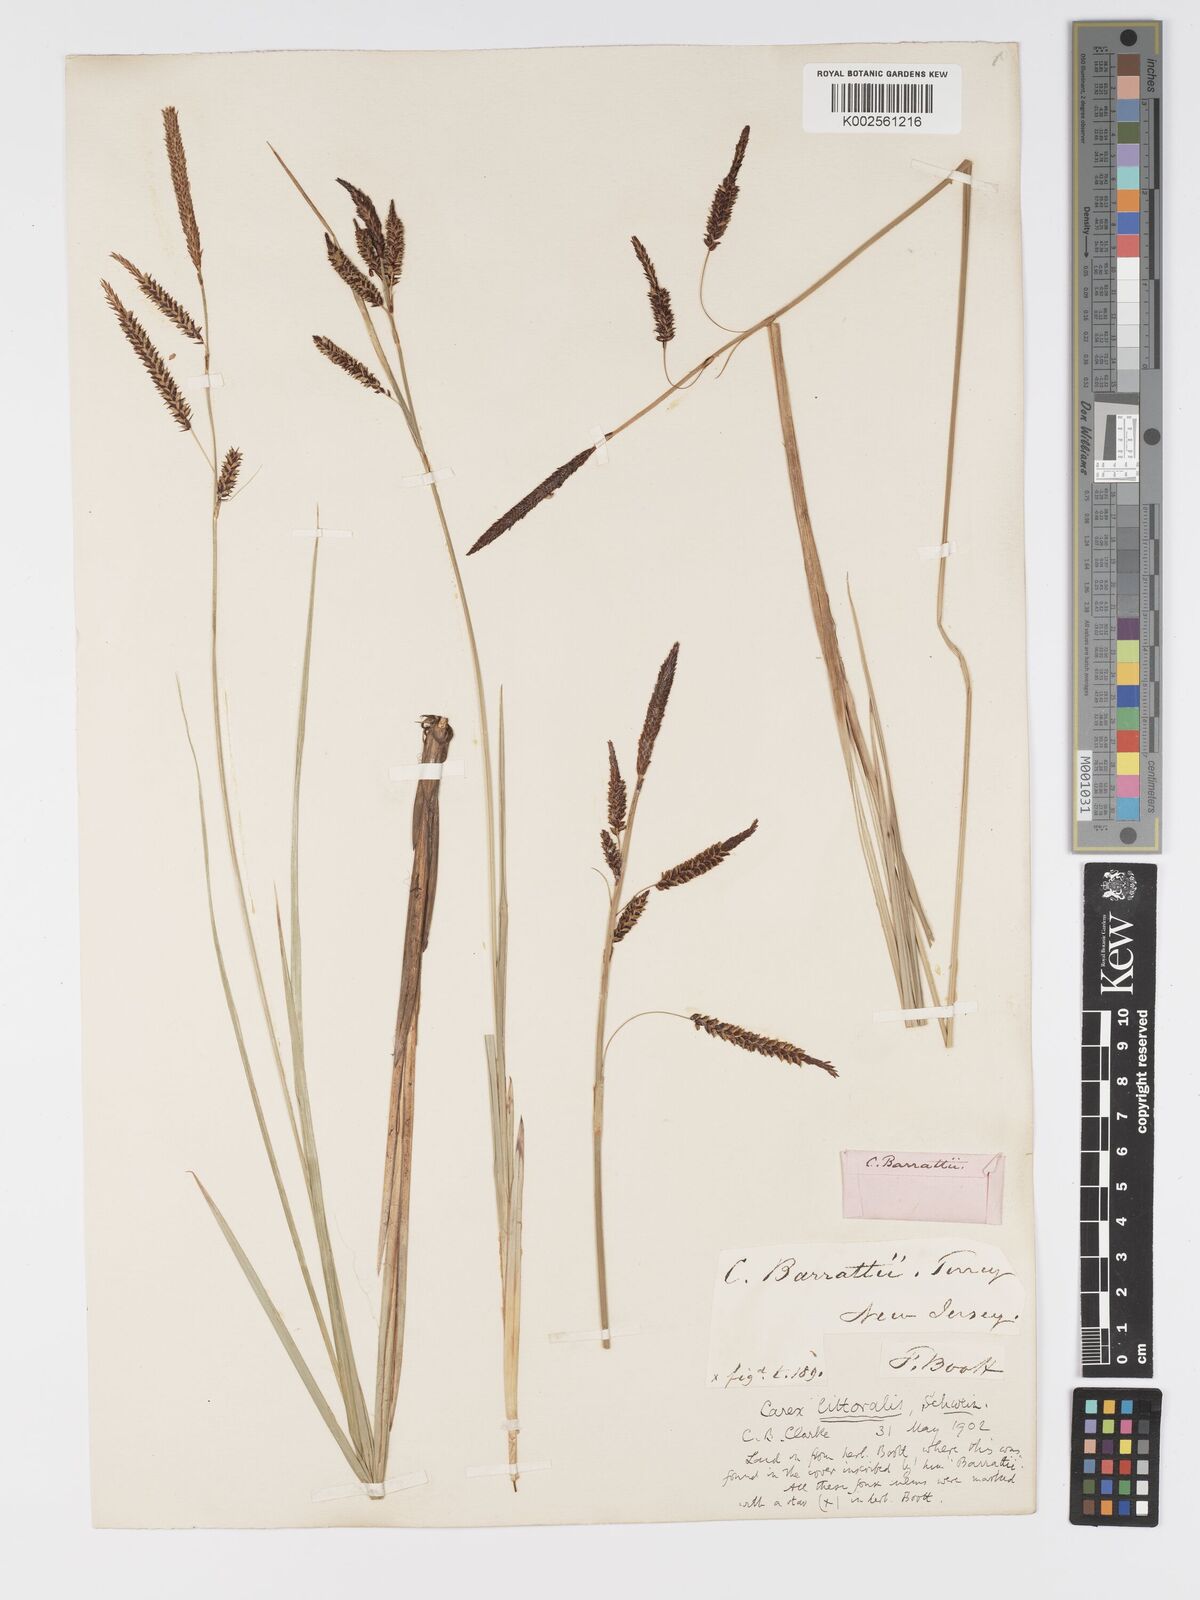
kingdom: Plantae
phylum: Tracheophyta
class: Liliopsida
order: Poales
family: Cyperaceae
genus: Carex
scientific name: Carex barrattii
